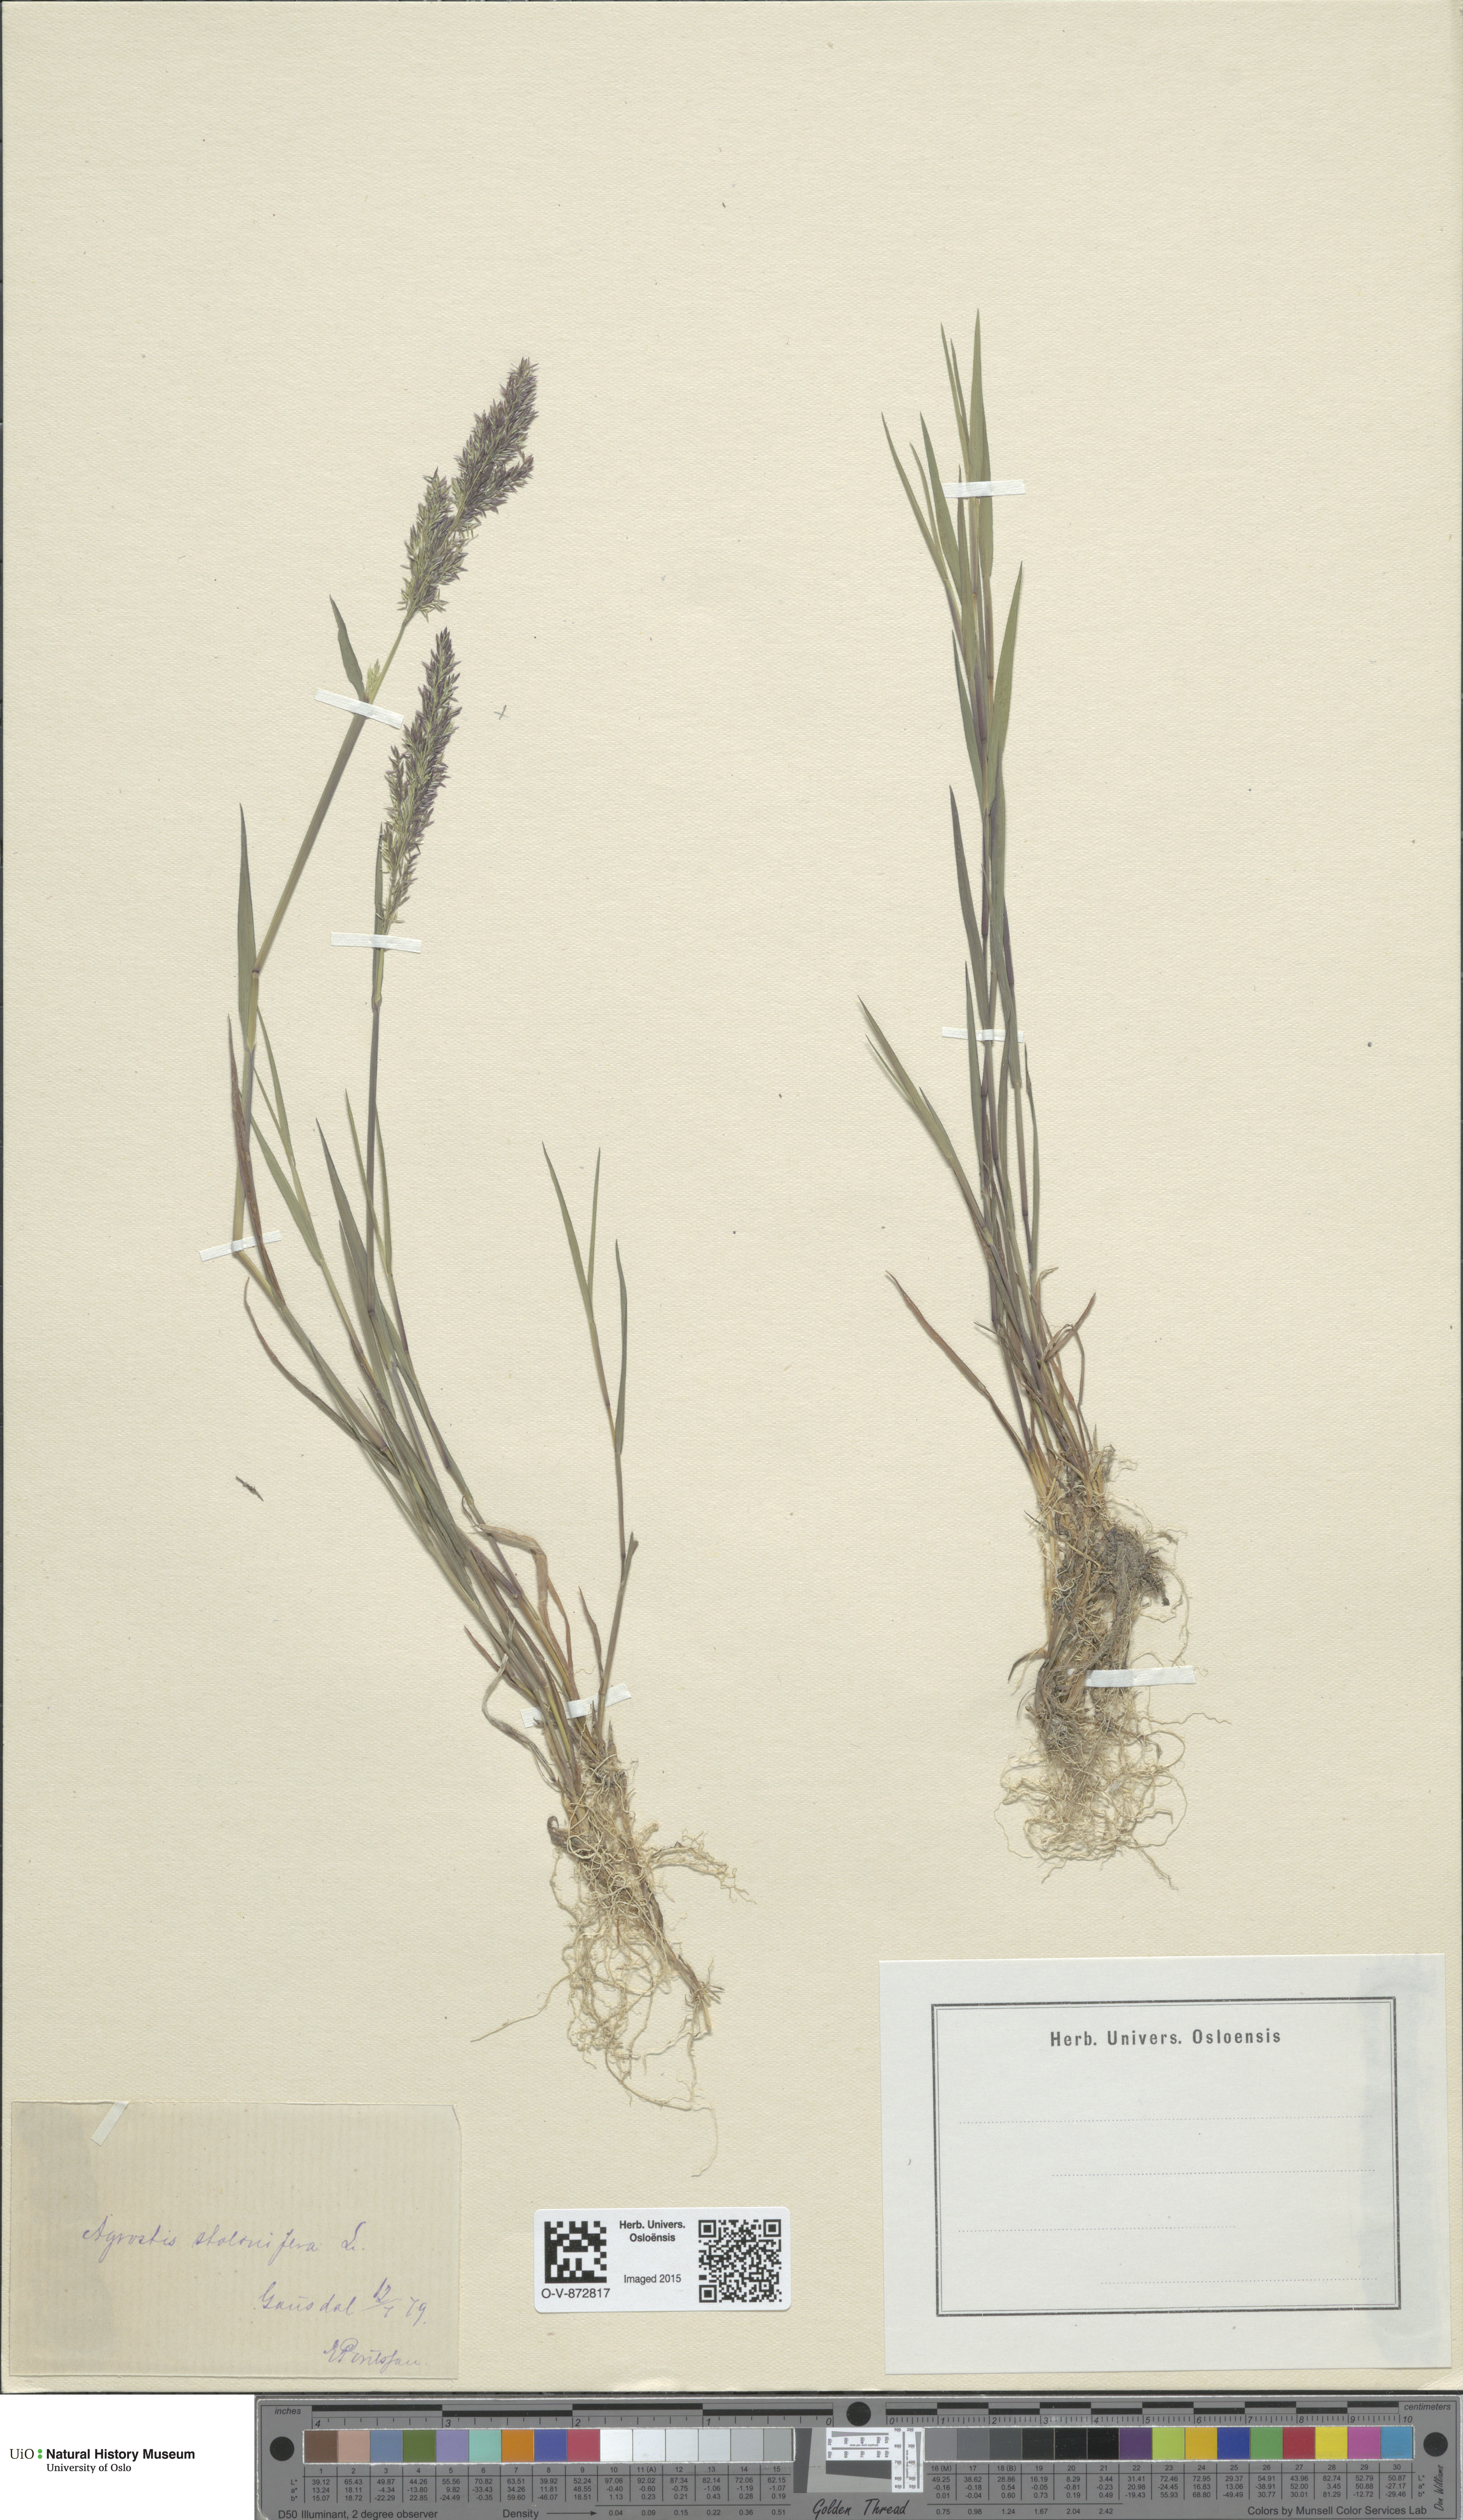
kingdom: Plantae
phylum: Tracheophyta
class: Liliopsida
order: Poales
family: Poaceae
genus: Agrostis
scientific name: Agrostis stolonifera
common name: Creeping bentgrass
